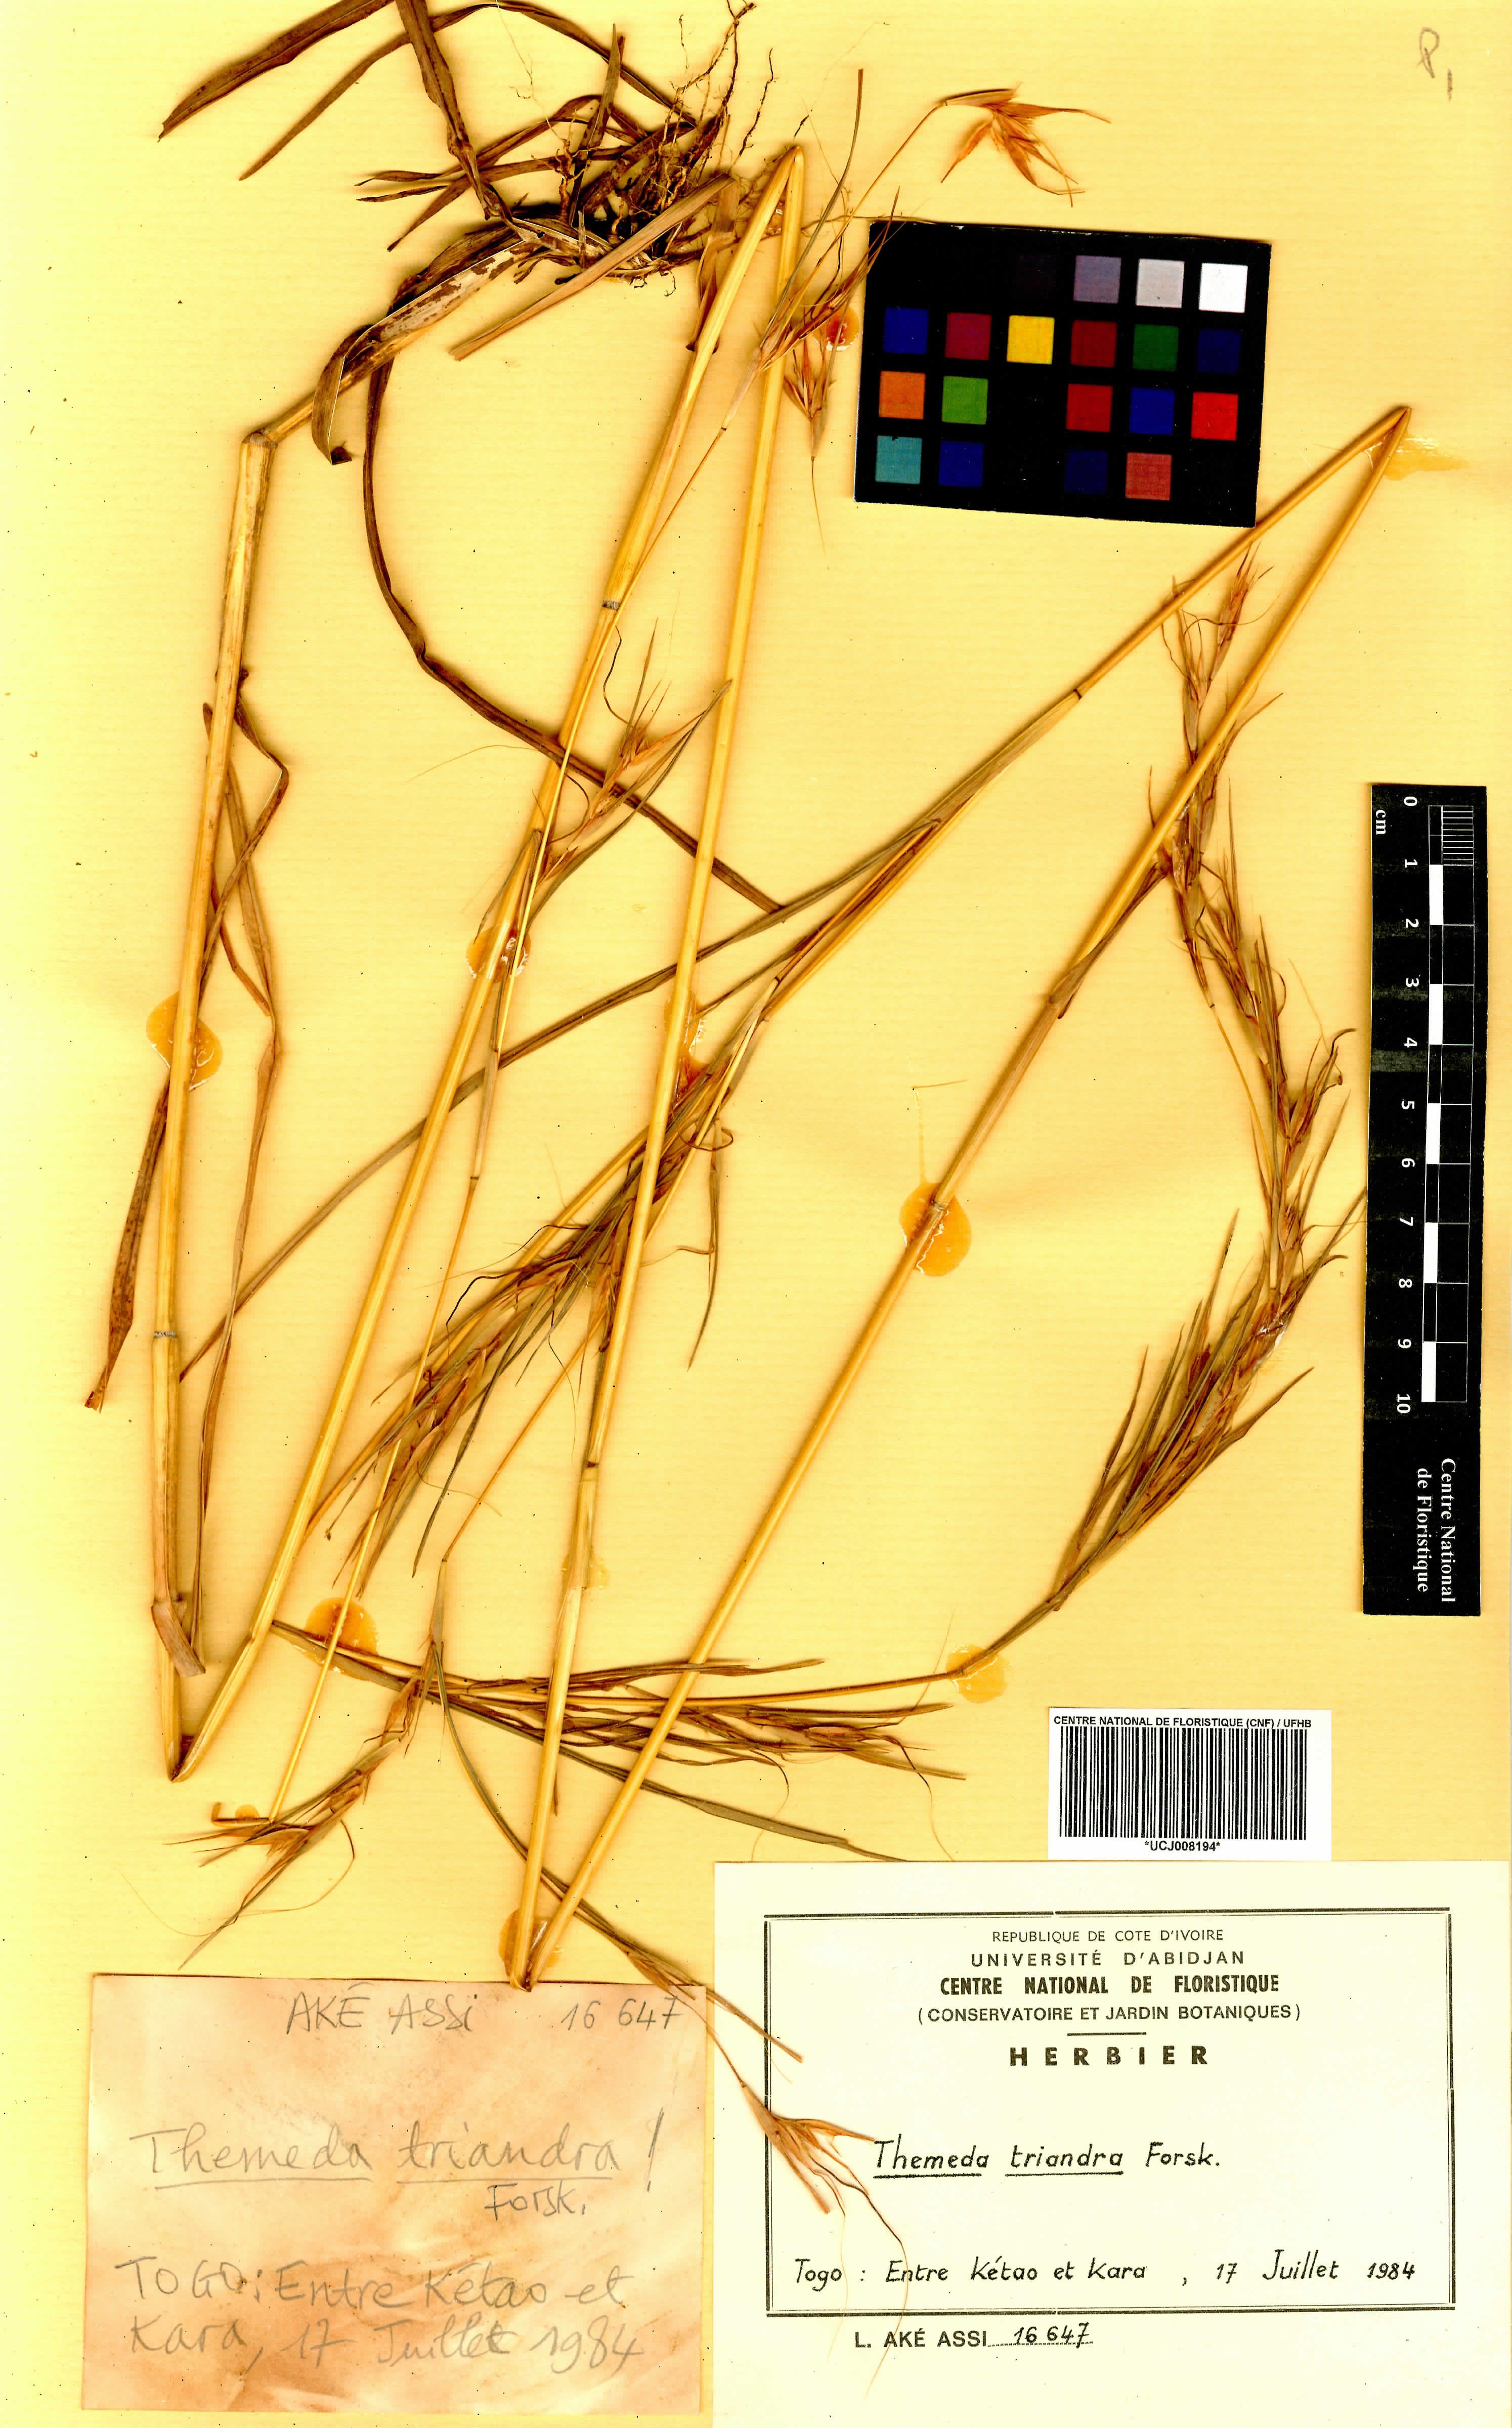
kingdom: Plantae
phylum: Tracheophyta
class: Liliopsida
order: Poales
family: Poaceae
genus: Themeda
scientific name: Themeda triandra
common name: Kangaroo grass
